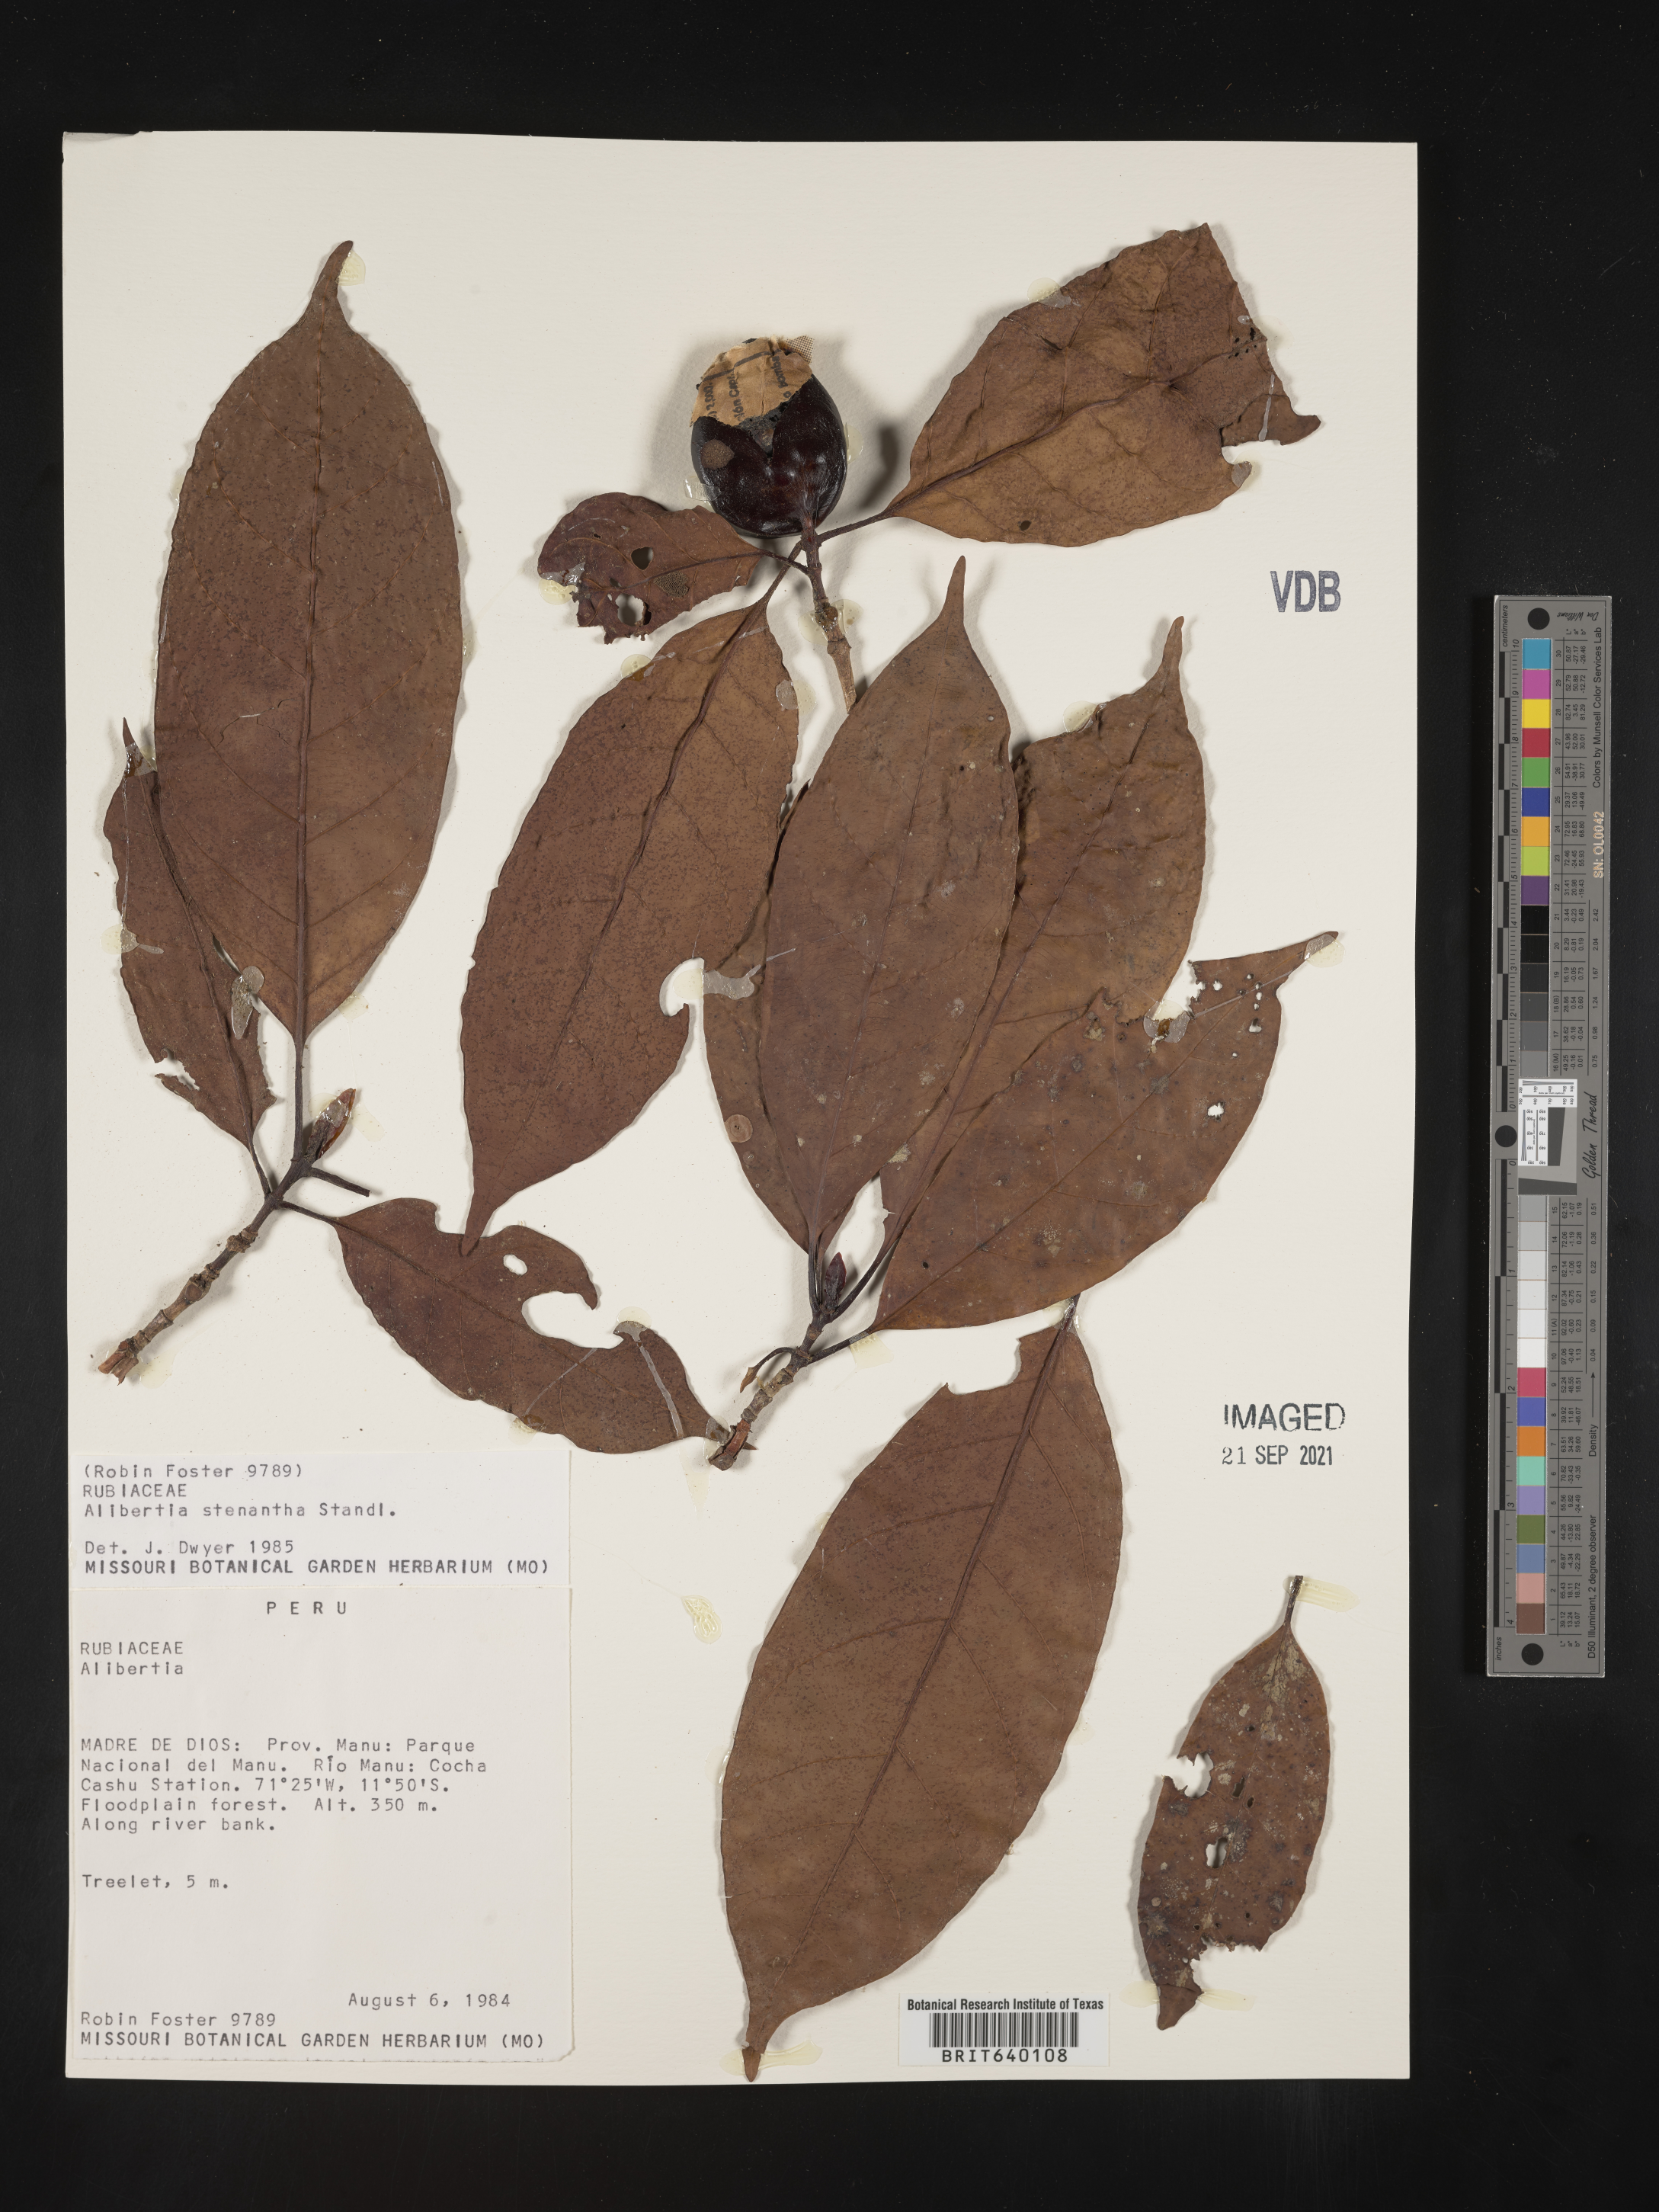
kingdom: Plantae
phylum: Tracheophyta
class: Magnoliopsida
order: Gentianales
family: Rubiaceae
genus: Alibertia
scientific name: Alibertia
